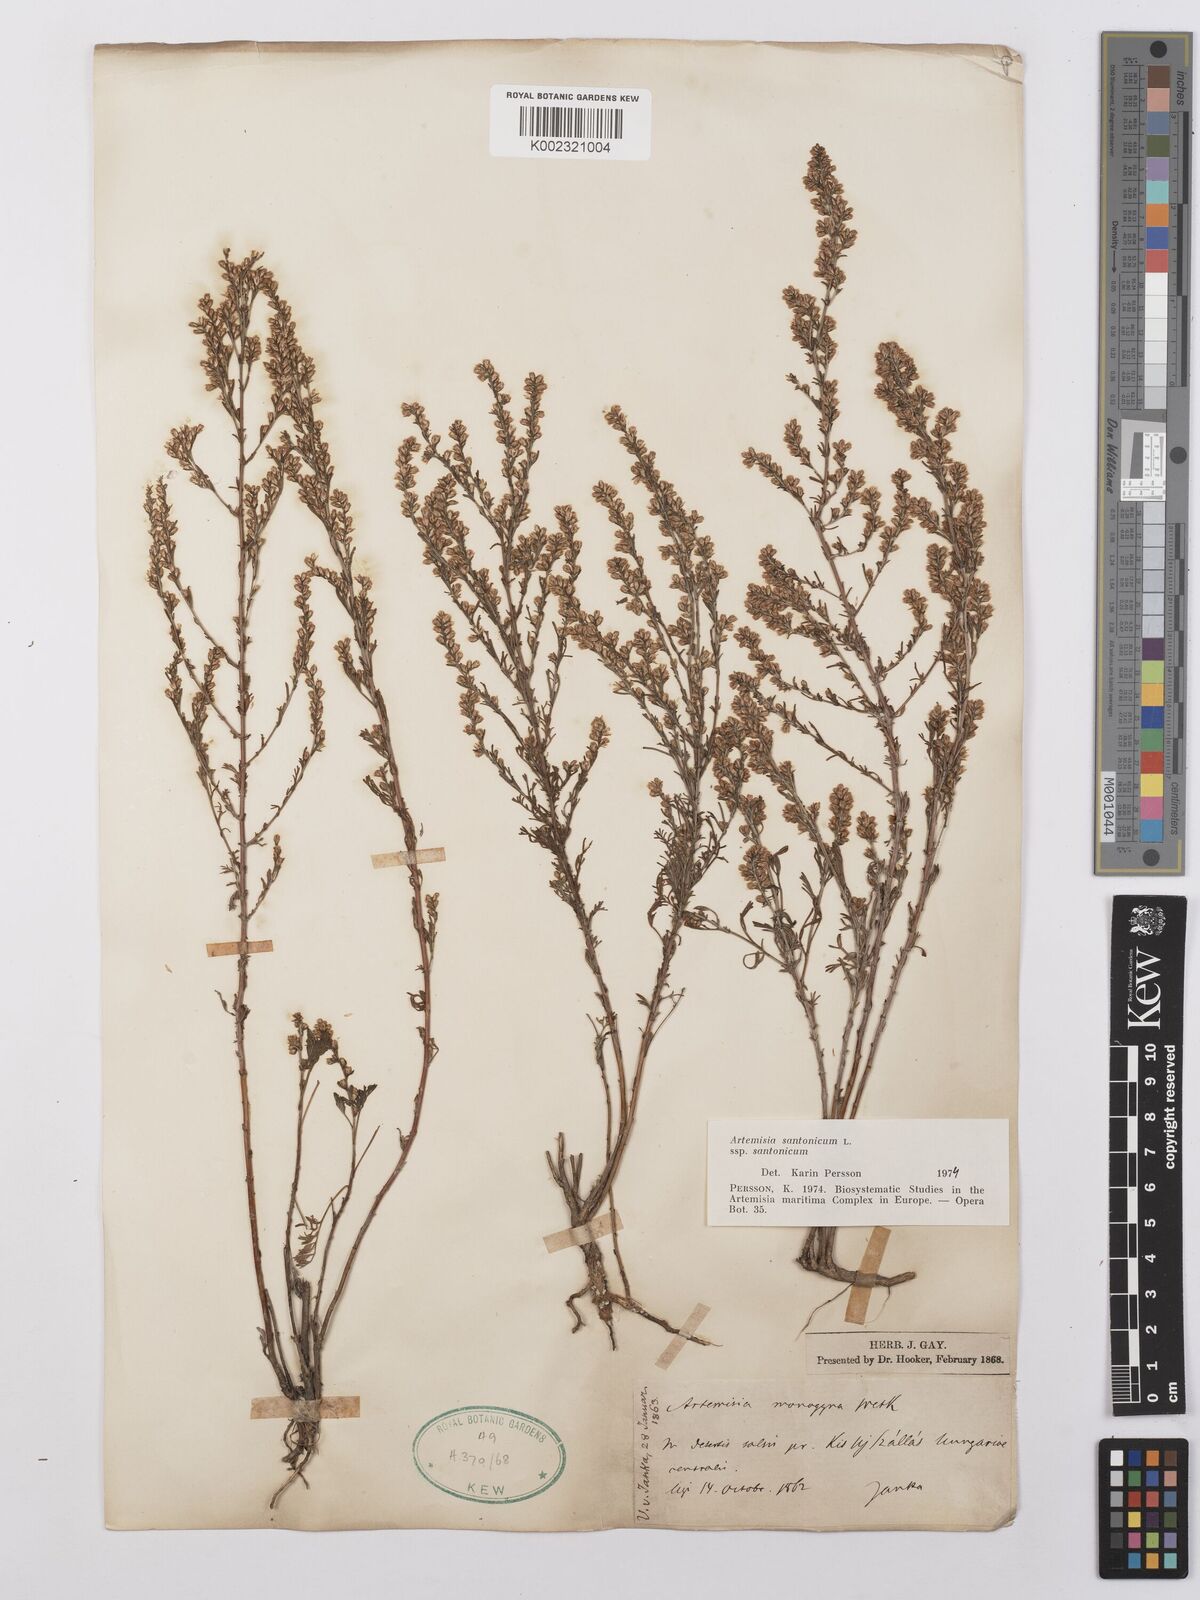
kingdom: Plantae
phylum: Tracheophyta
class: Magnoliopsida
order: Asterales
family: Asteraceae
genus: Artemisia
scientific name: Artemisia santolina
